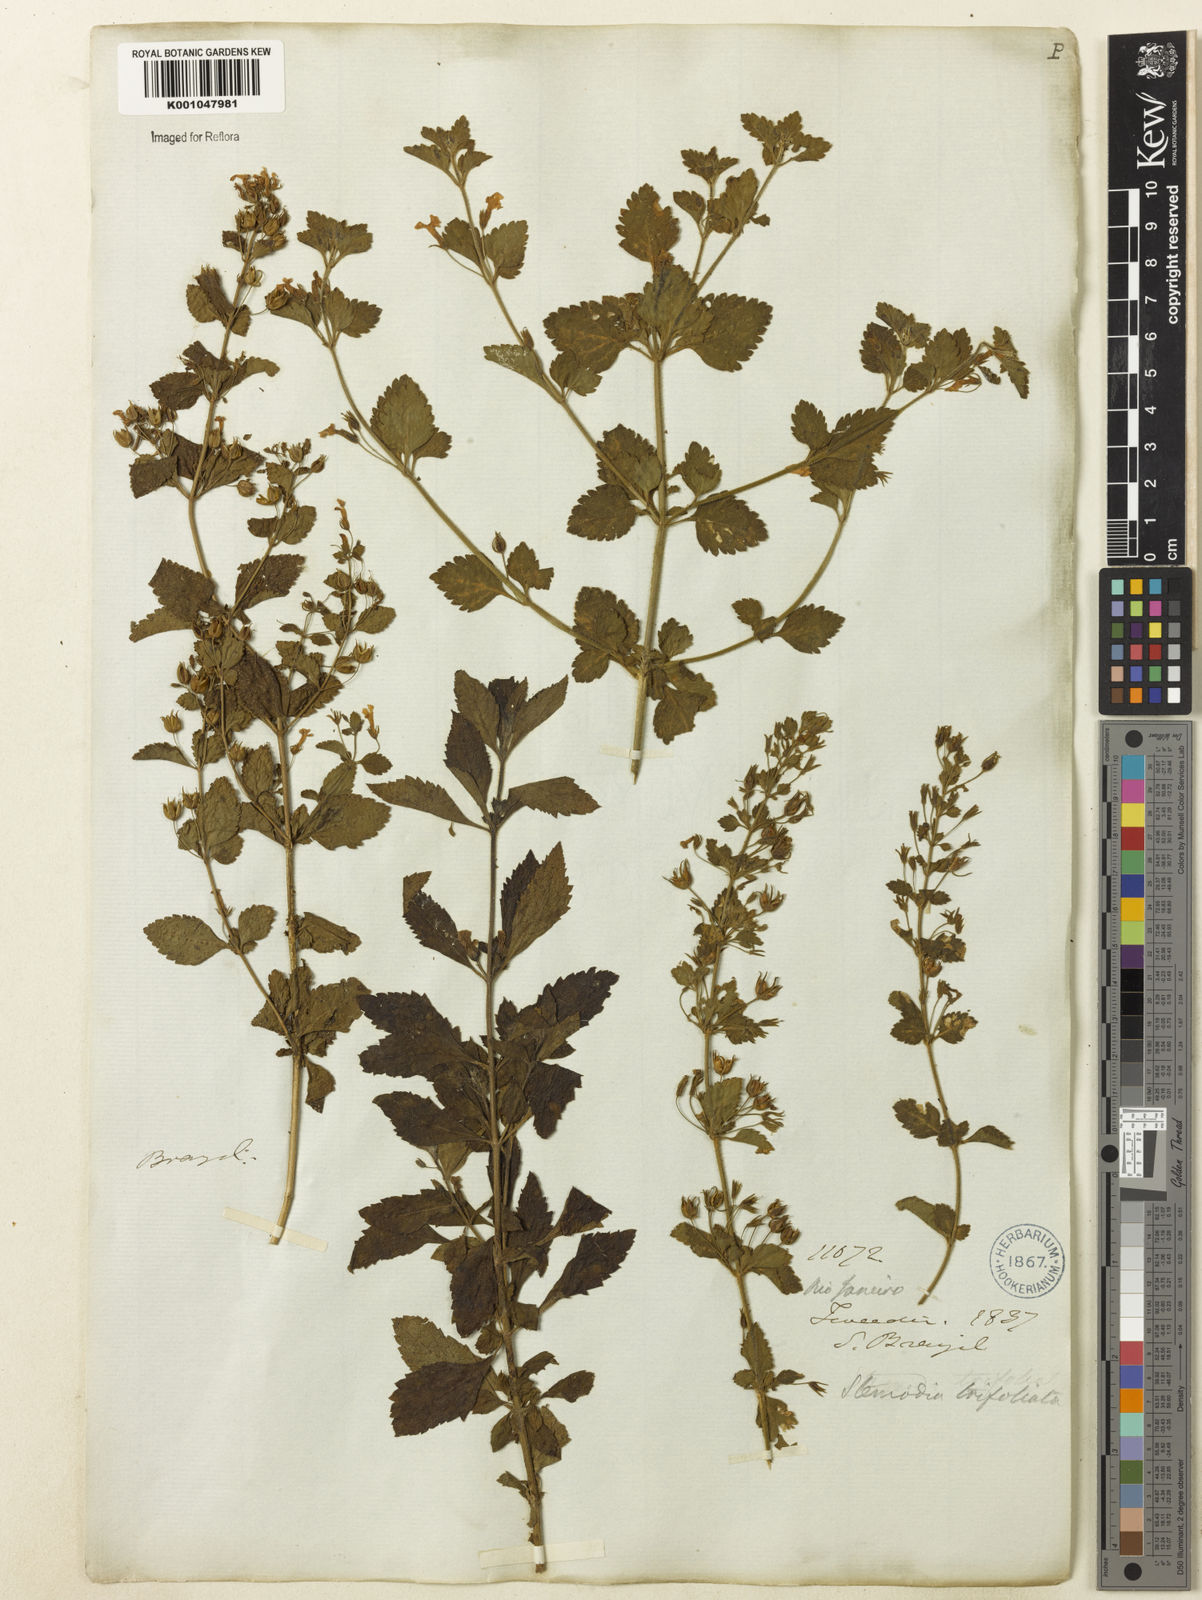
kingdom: Plantae
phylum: Tracheophyta
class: Magnoliopsida
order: Lamiales
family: Plantaginaceae
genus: Stemodia
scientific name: Stemodia trifoliata
